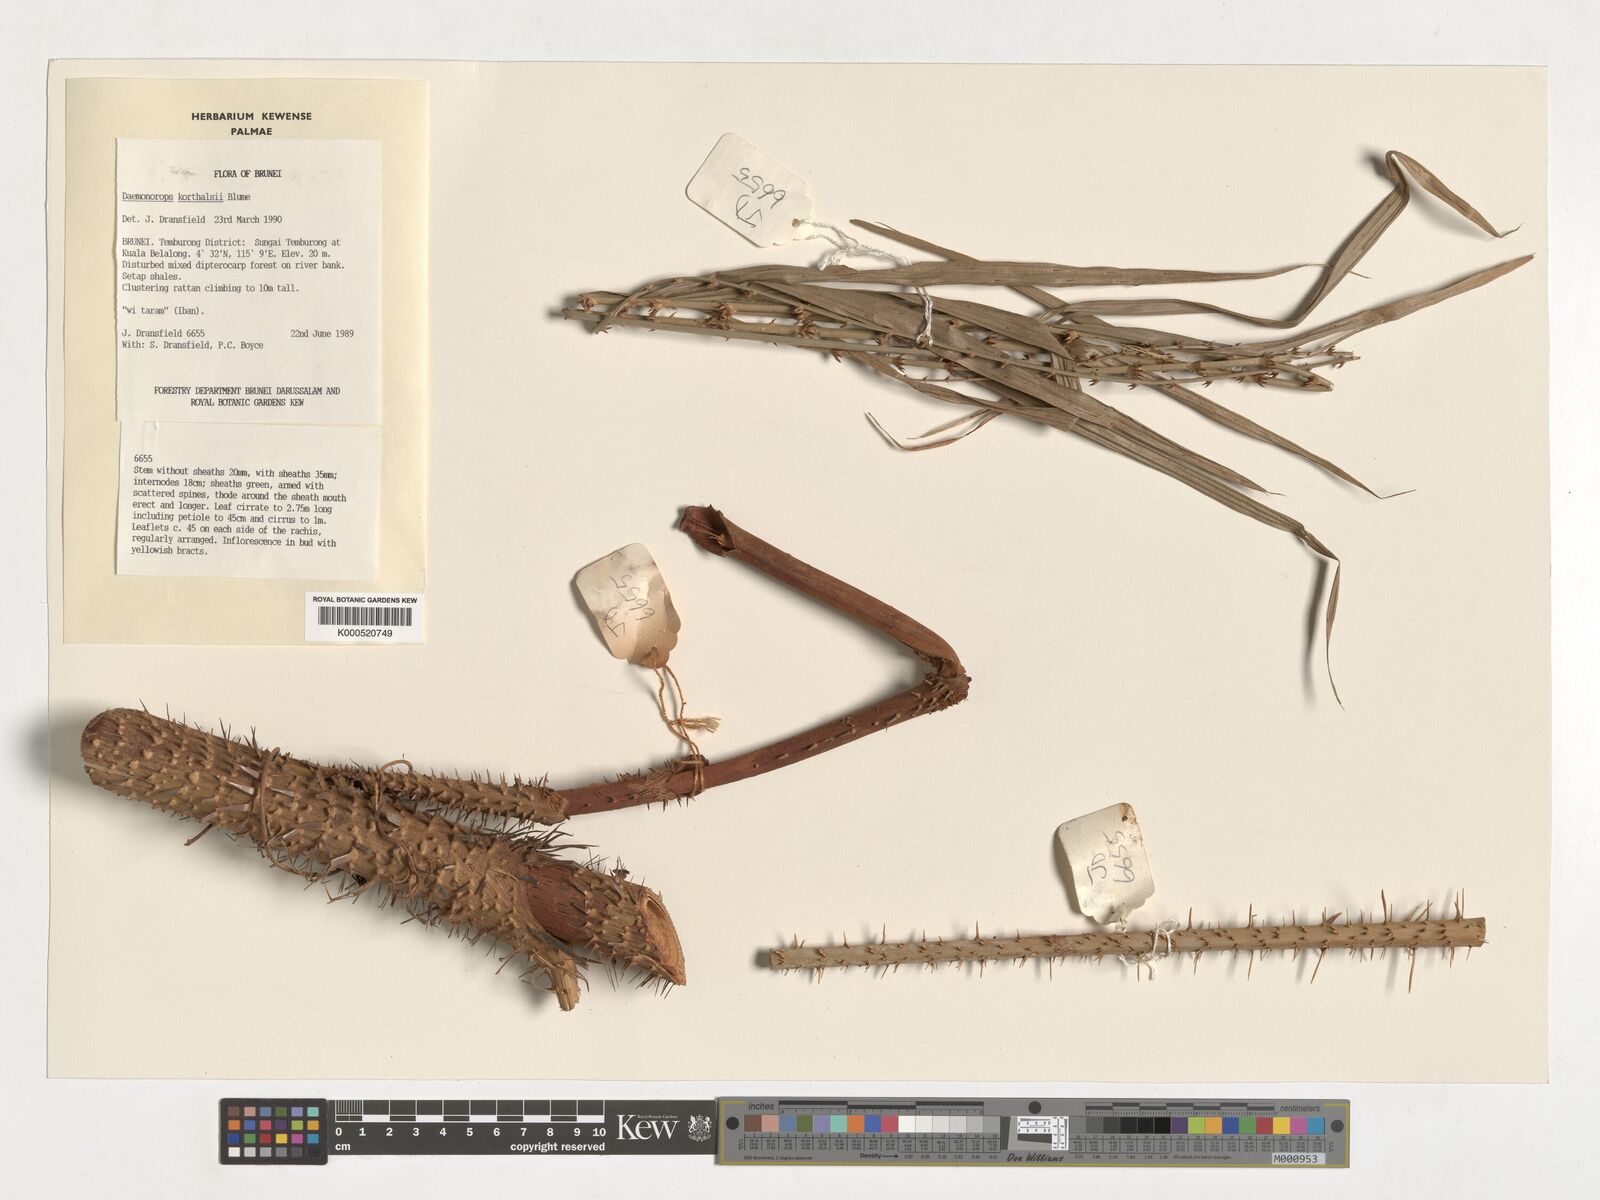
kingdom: Plantae
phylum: Tracheophyta
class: Liliopsida
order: Arecales
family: Arecaceae
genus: Calamus
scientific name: Calamus hirsutus
